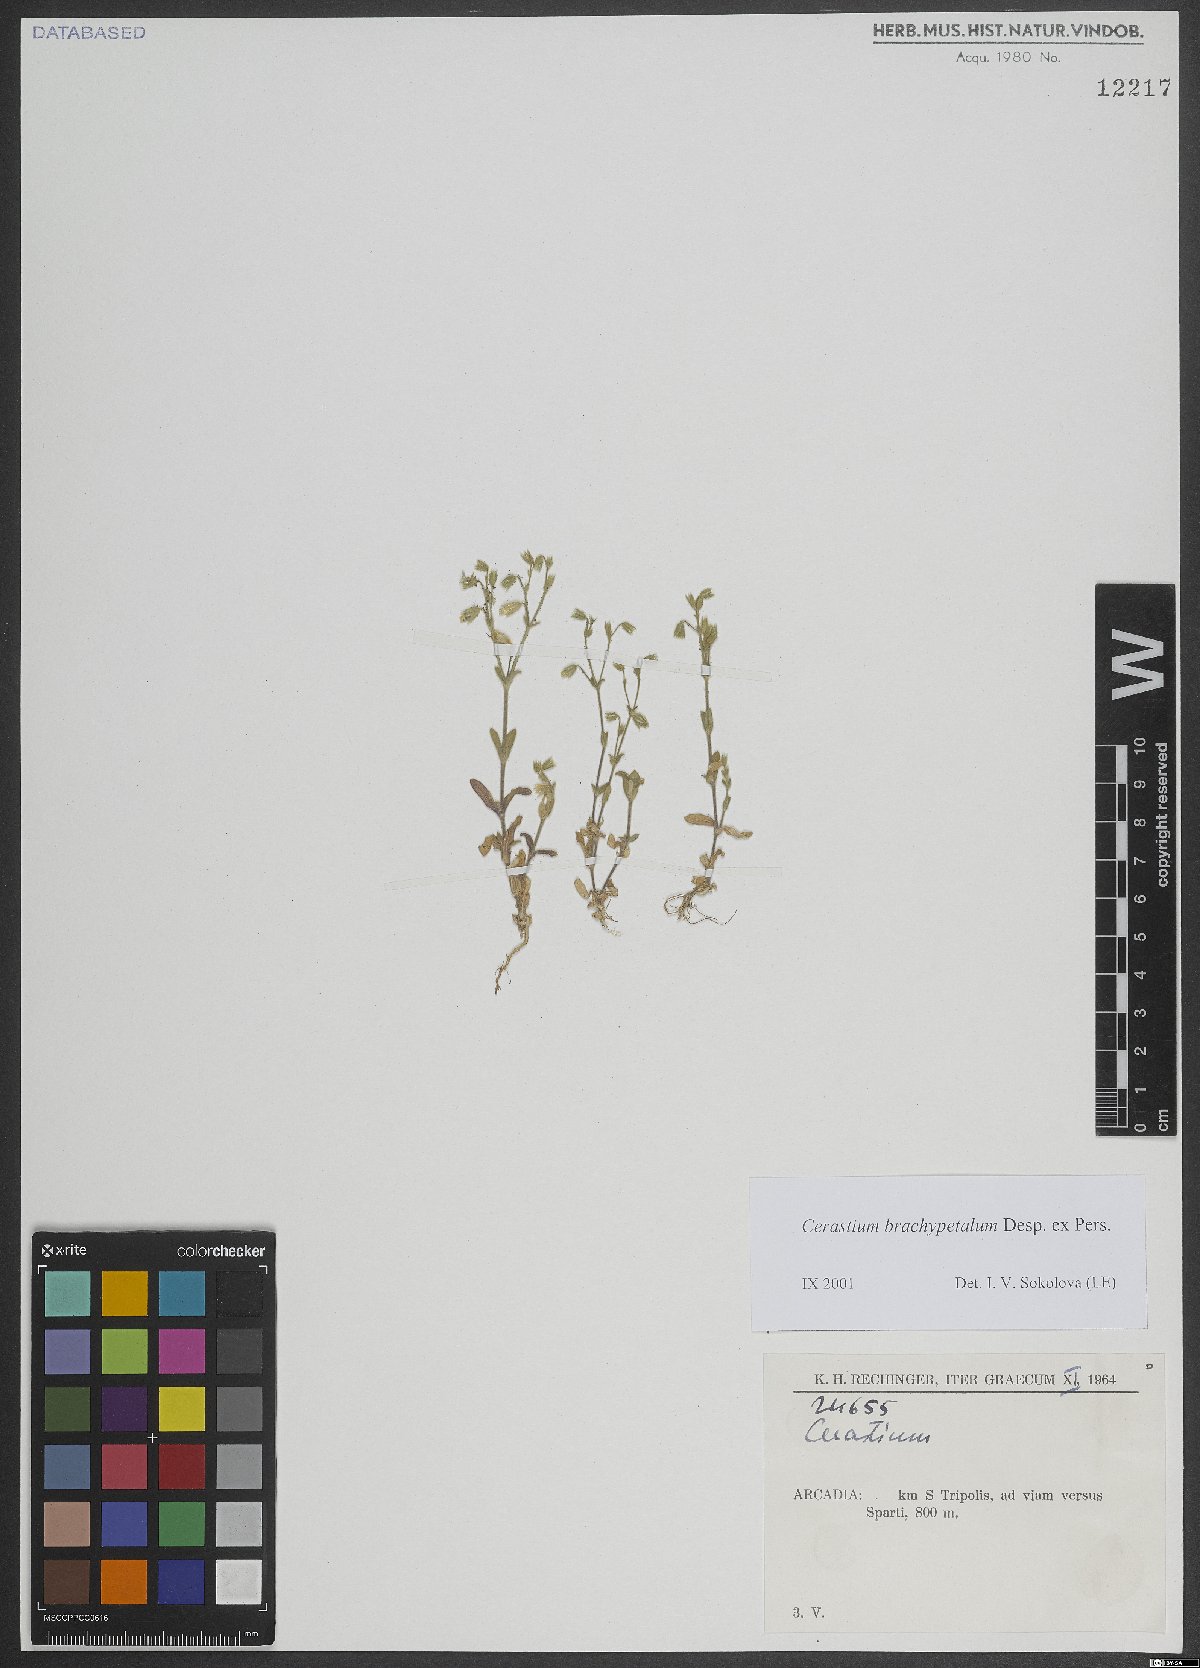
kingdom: Plantae
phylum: Tracheophyta
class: Magnoliopsida
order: Caryophyllales
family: Caryophyllaceae
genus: Cerastium
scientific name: Cerastium brachypetalum
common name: Grey mouse-ear
